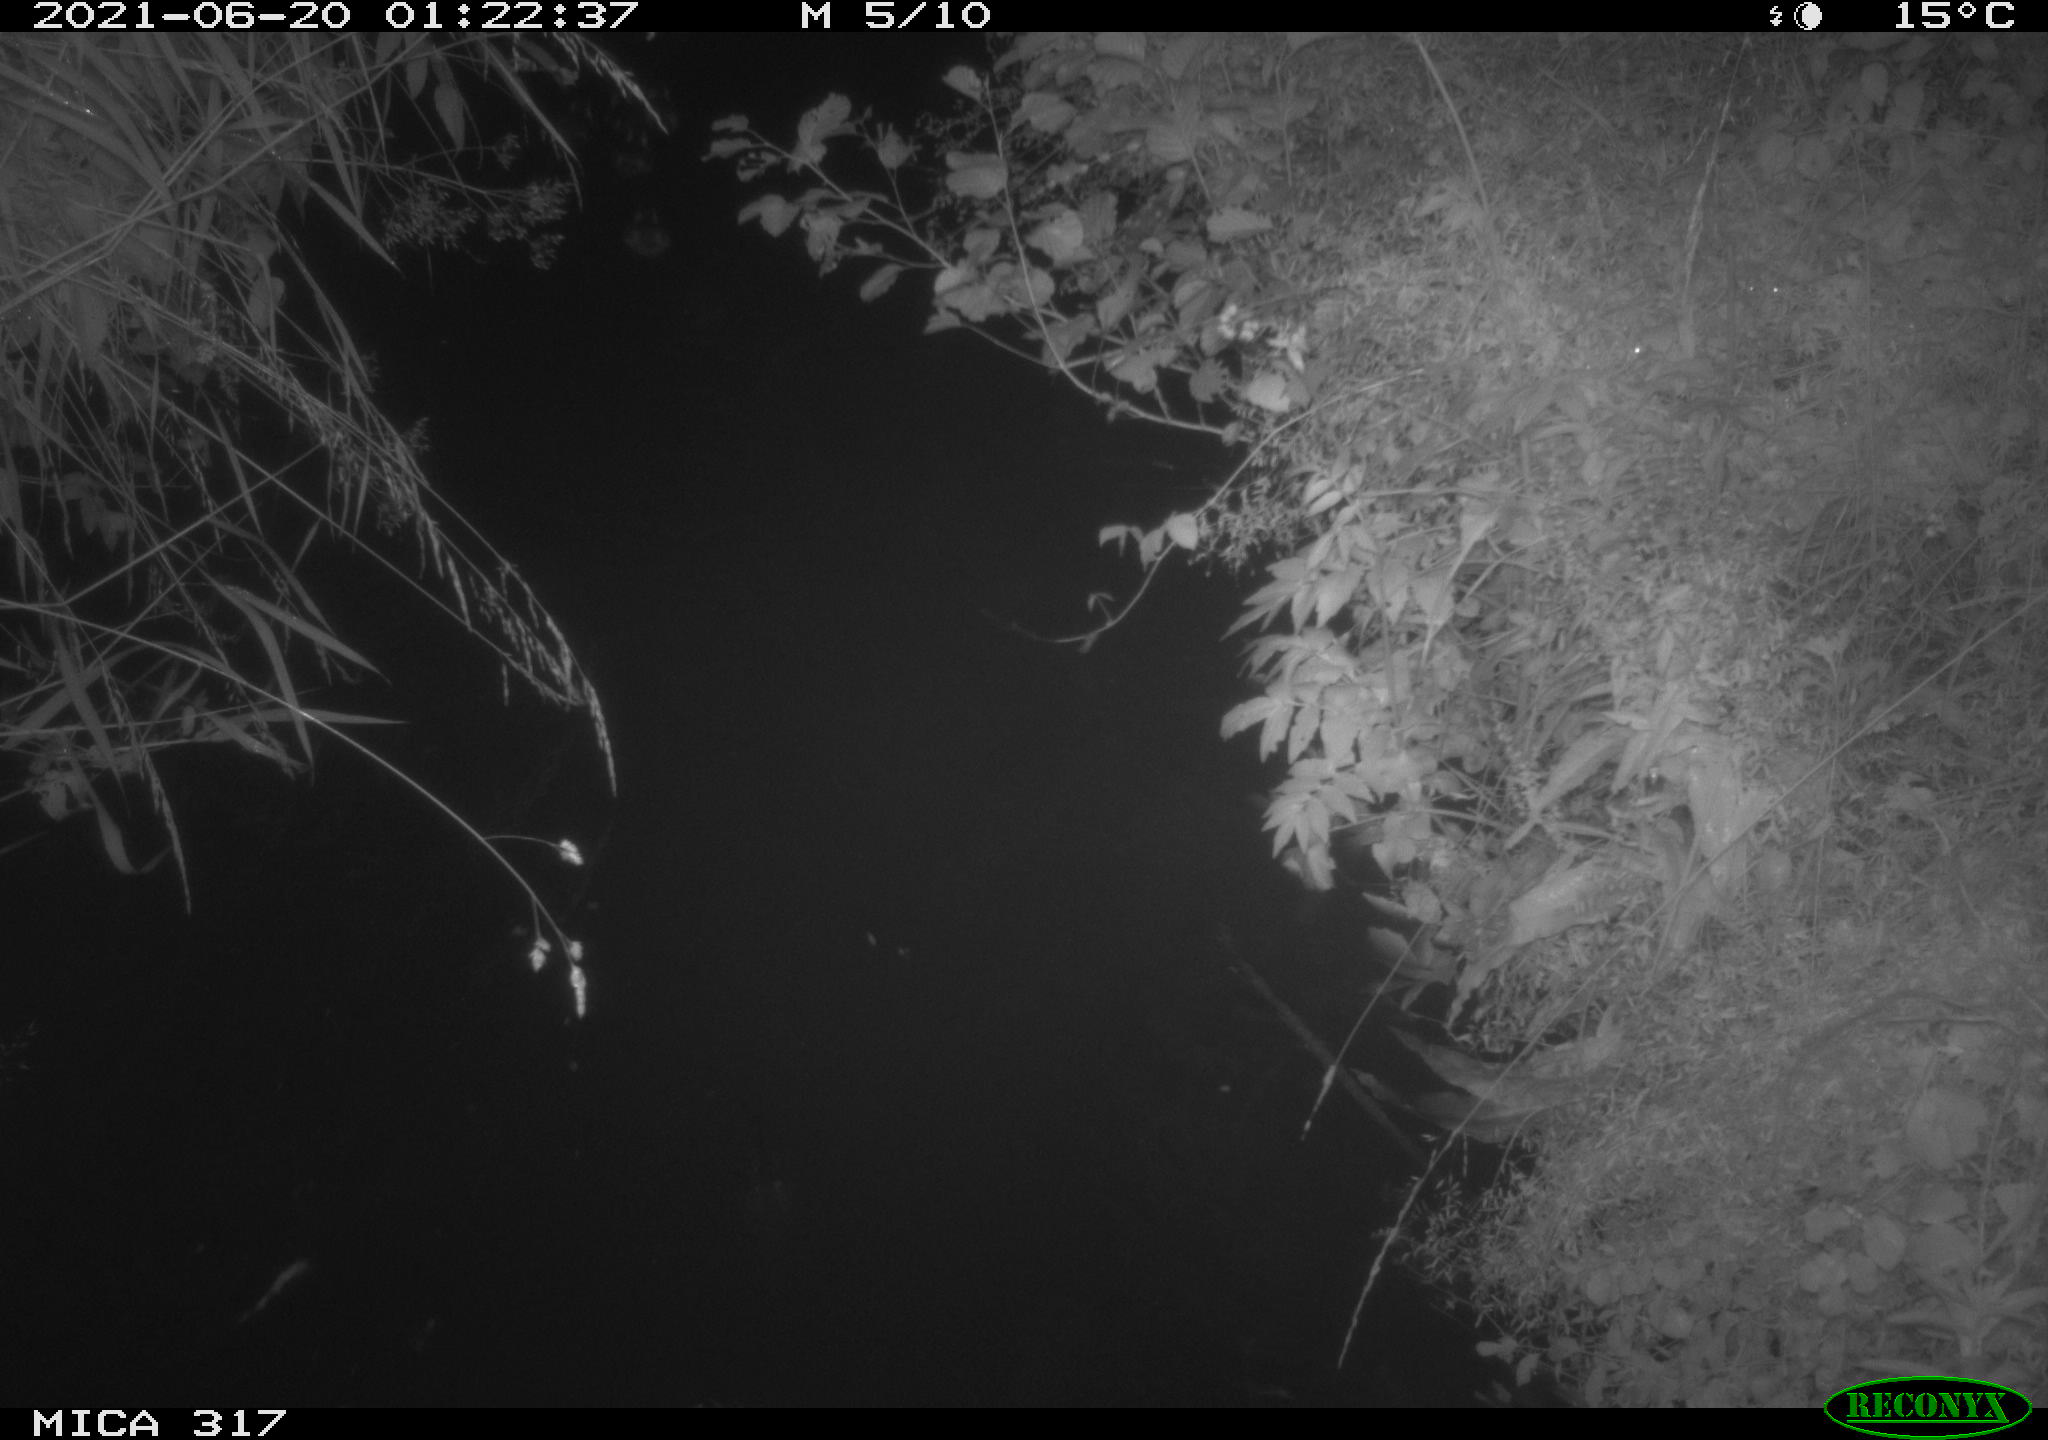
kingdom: Animalia
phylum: Chordata
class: Aves
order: Anseriformes
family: Anatidae
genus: Anas
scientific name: Anas platyrhynchos
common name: Mallard
